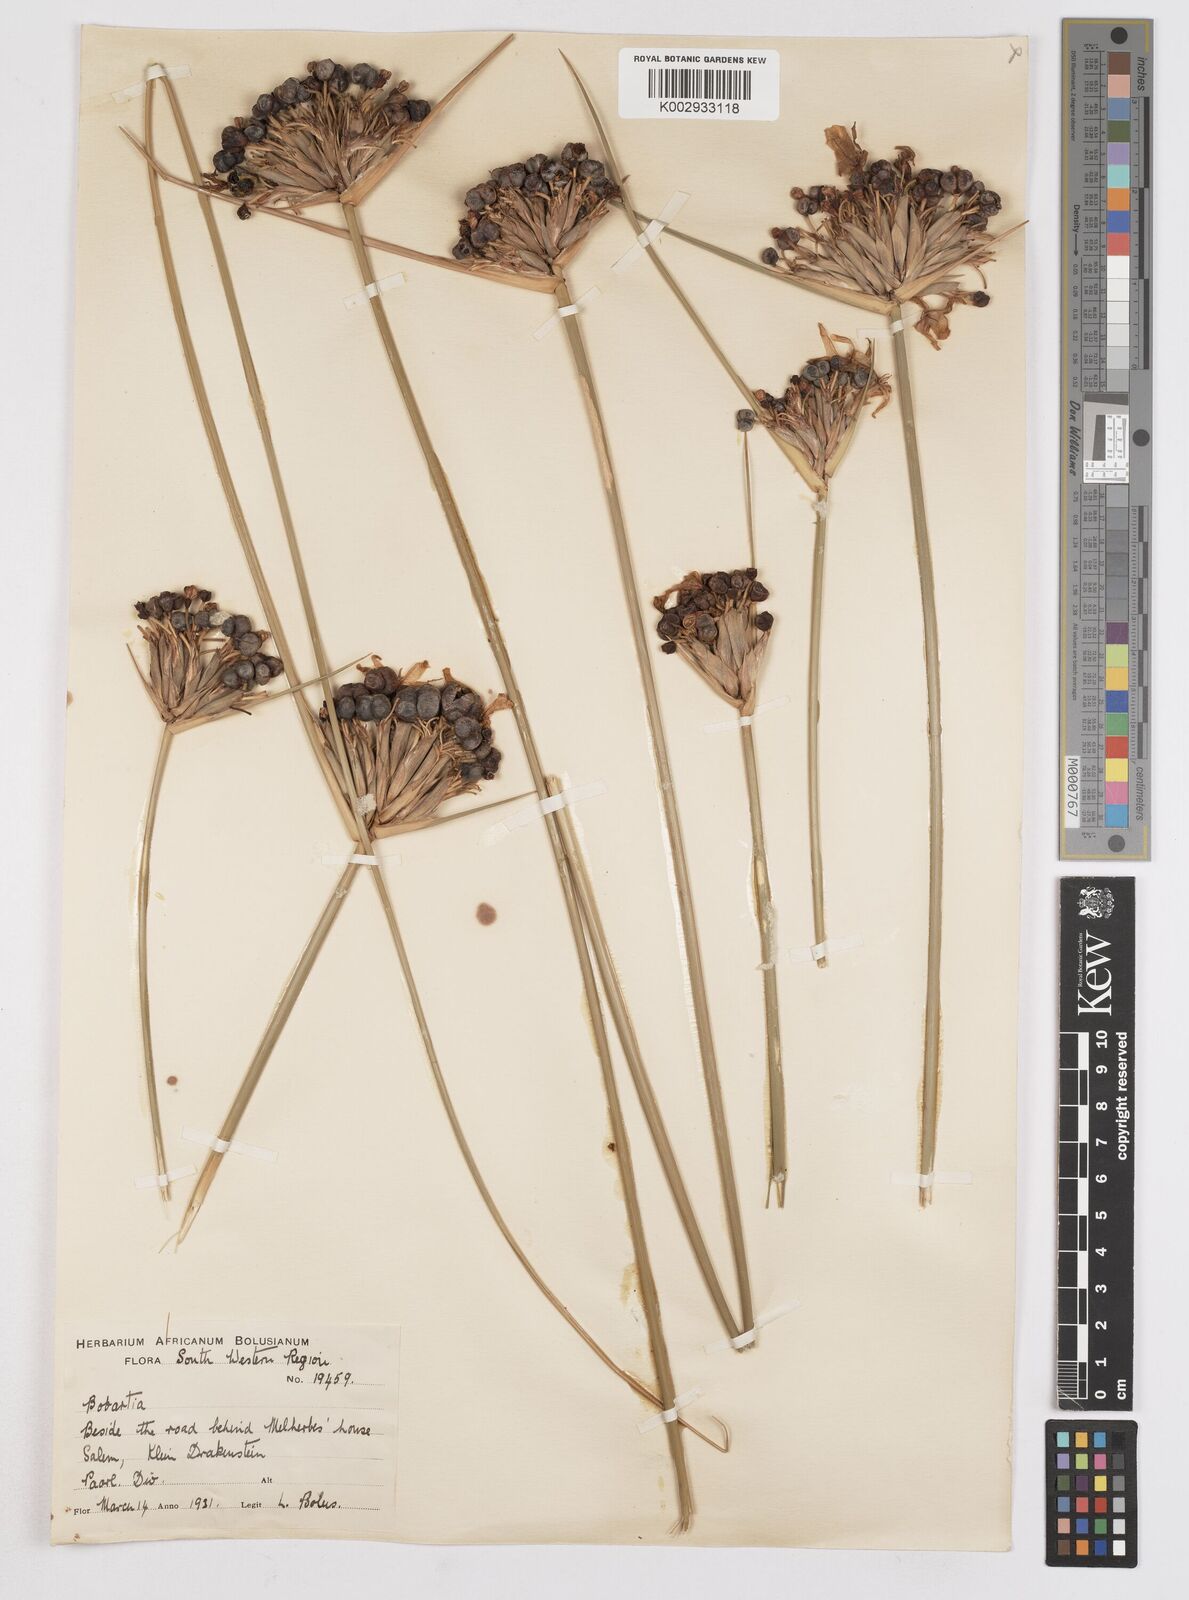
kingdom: Plantae
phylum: Tracheophyta
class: Liliopsida
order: Asparagales
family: Iridaceae
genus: Bobartia
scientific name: Bobartia indica
